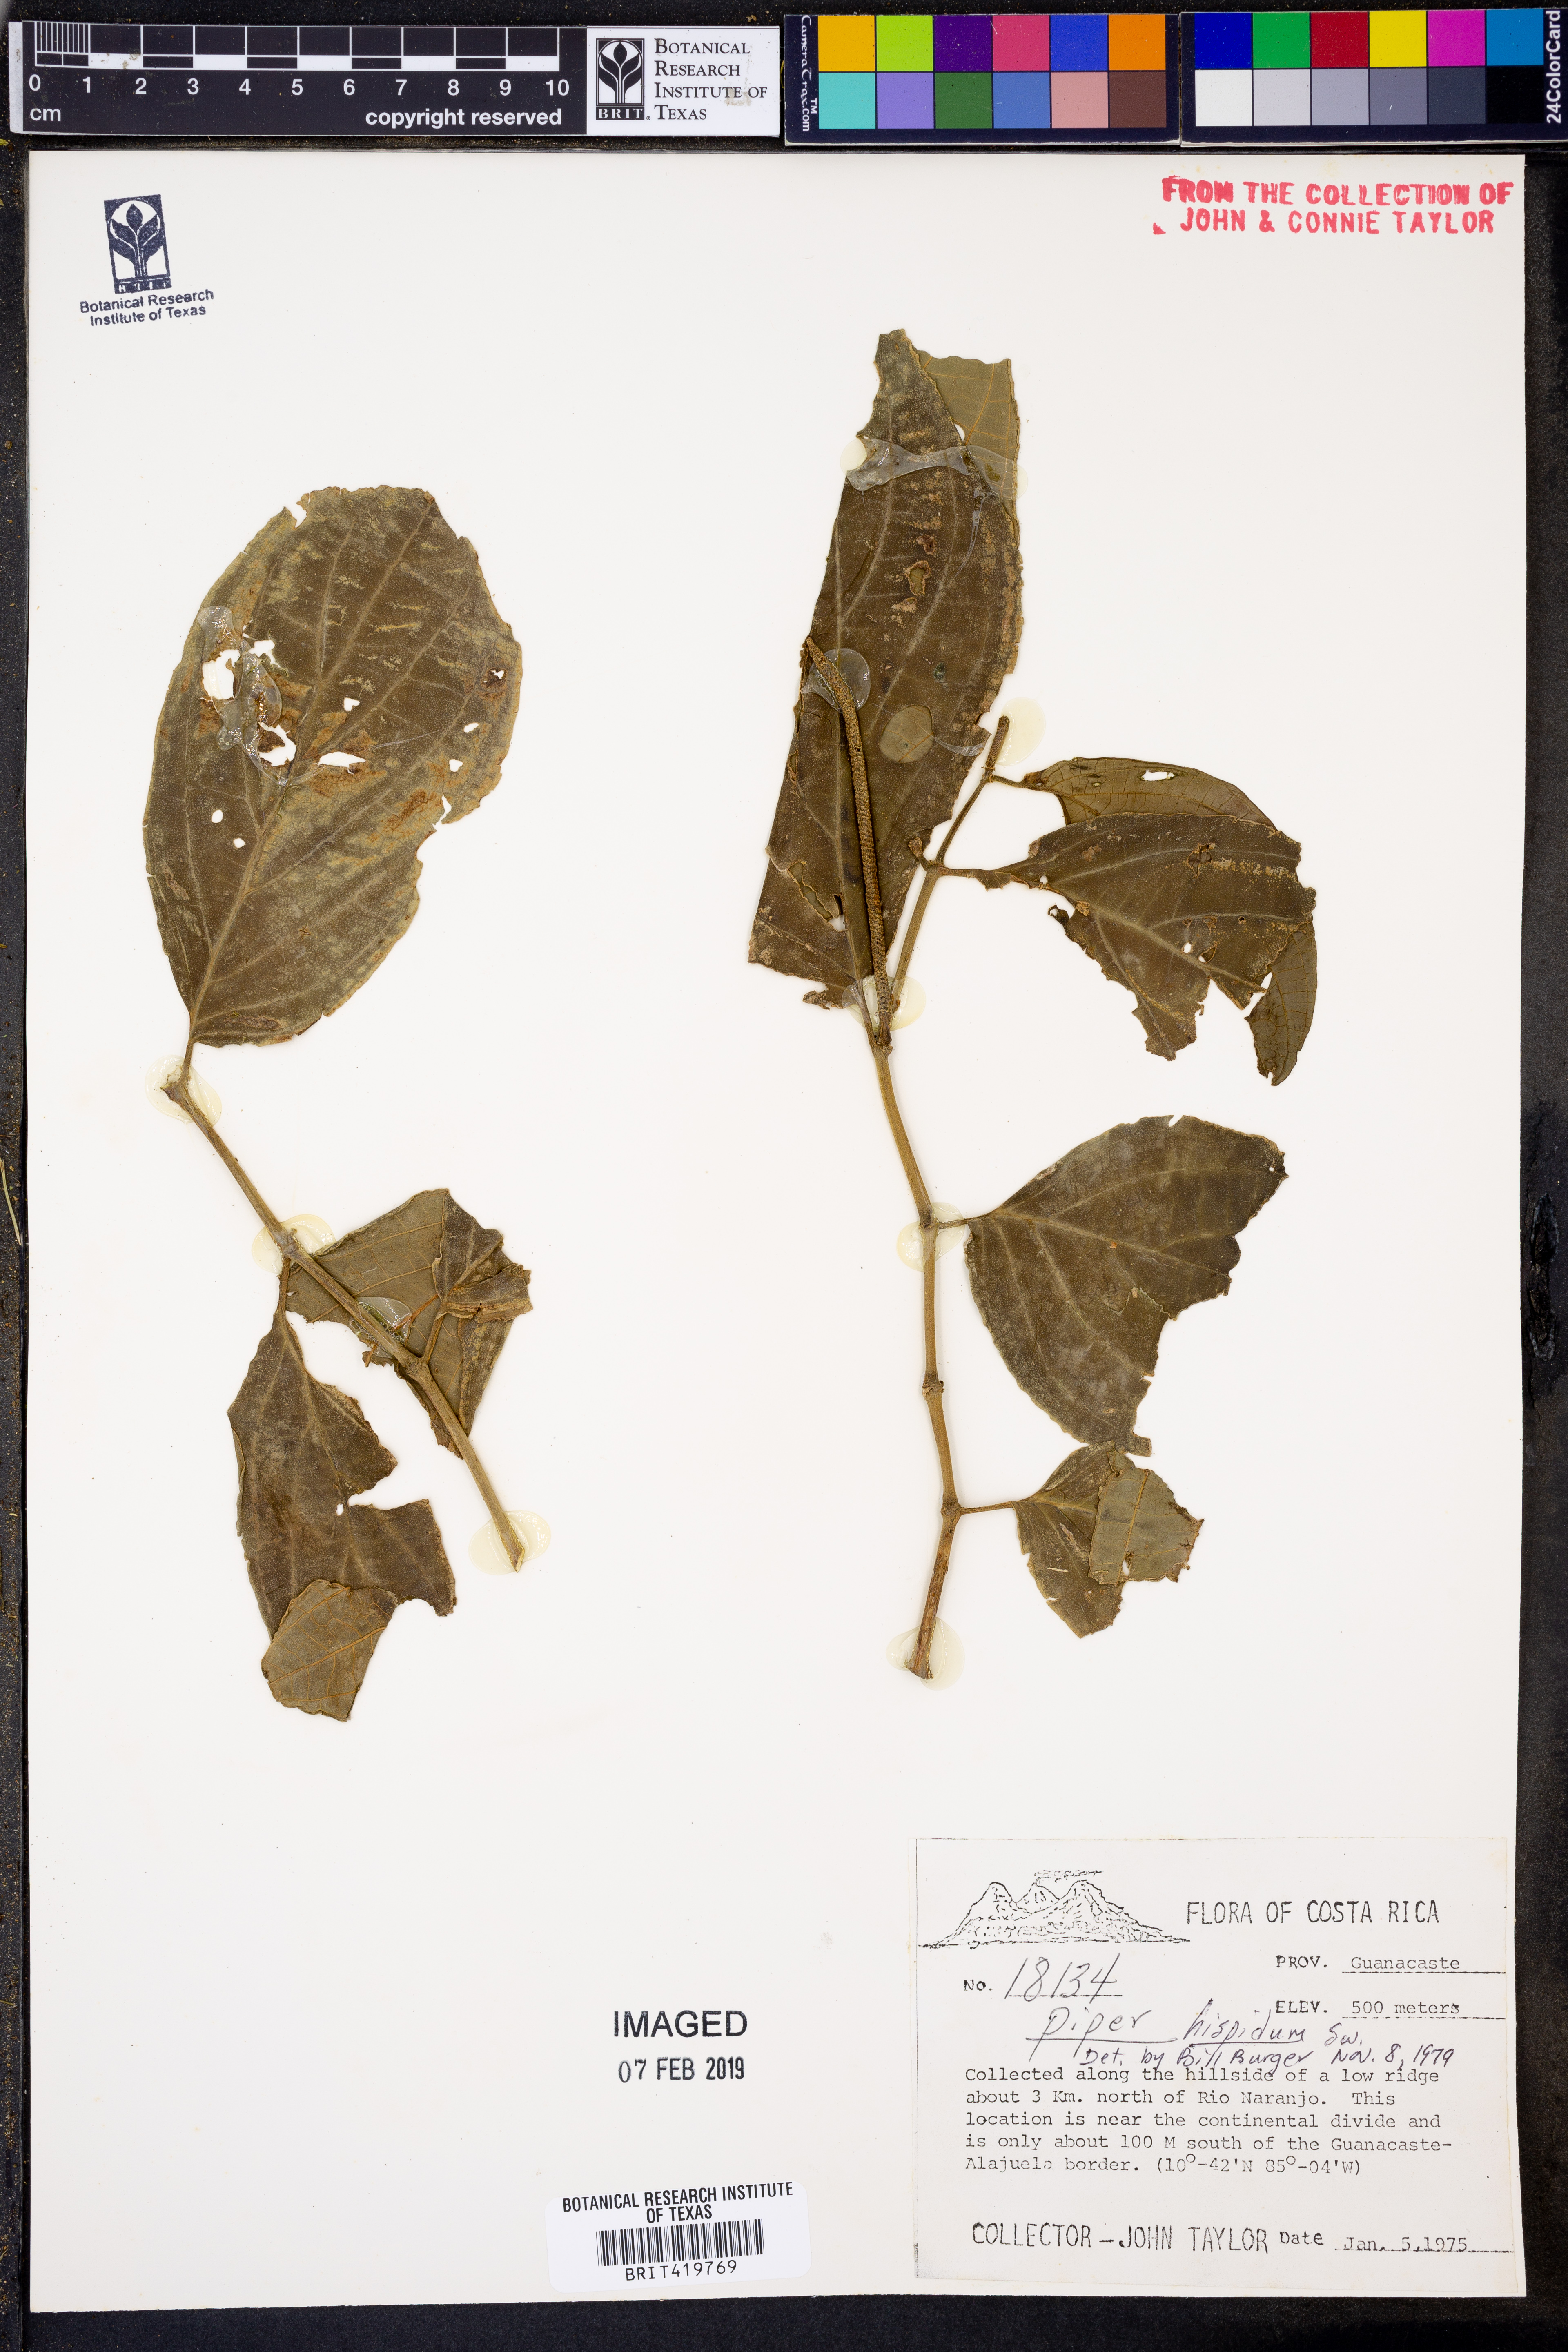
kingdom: Plantae
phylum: Tracheophyta
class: Magnoliopsida
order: Piperales
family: Piperaceae
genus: Piper
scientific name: Piper hispidum
